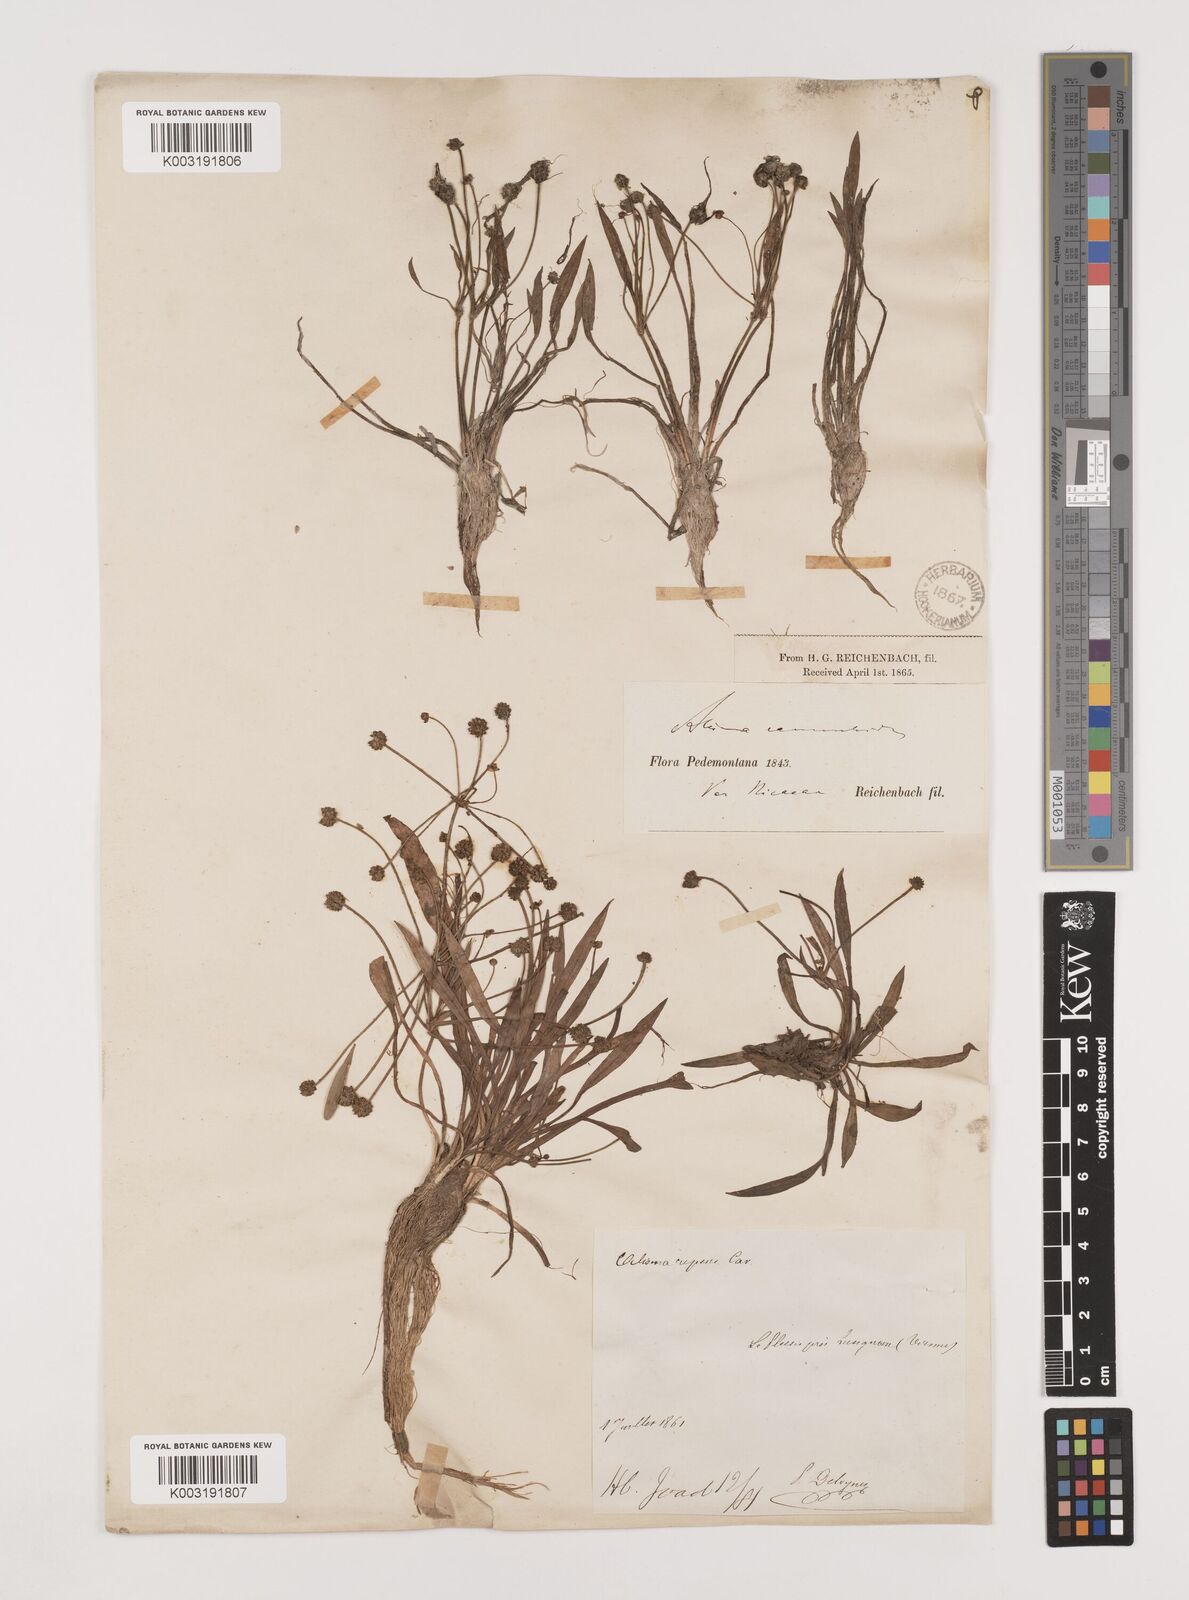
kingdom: Plantae
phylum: Tracheophyta
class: Liliopsida
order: Alismatales
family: Alismataceae
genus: Baldellia
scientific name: Baldellia ranunculoides
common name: Lesser water-plantain
